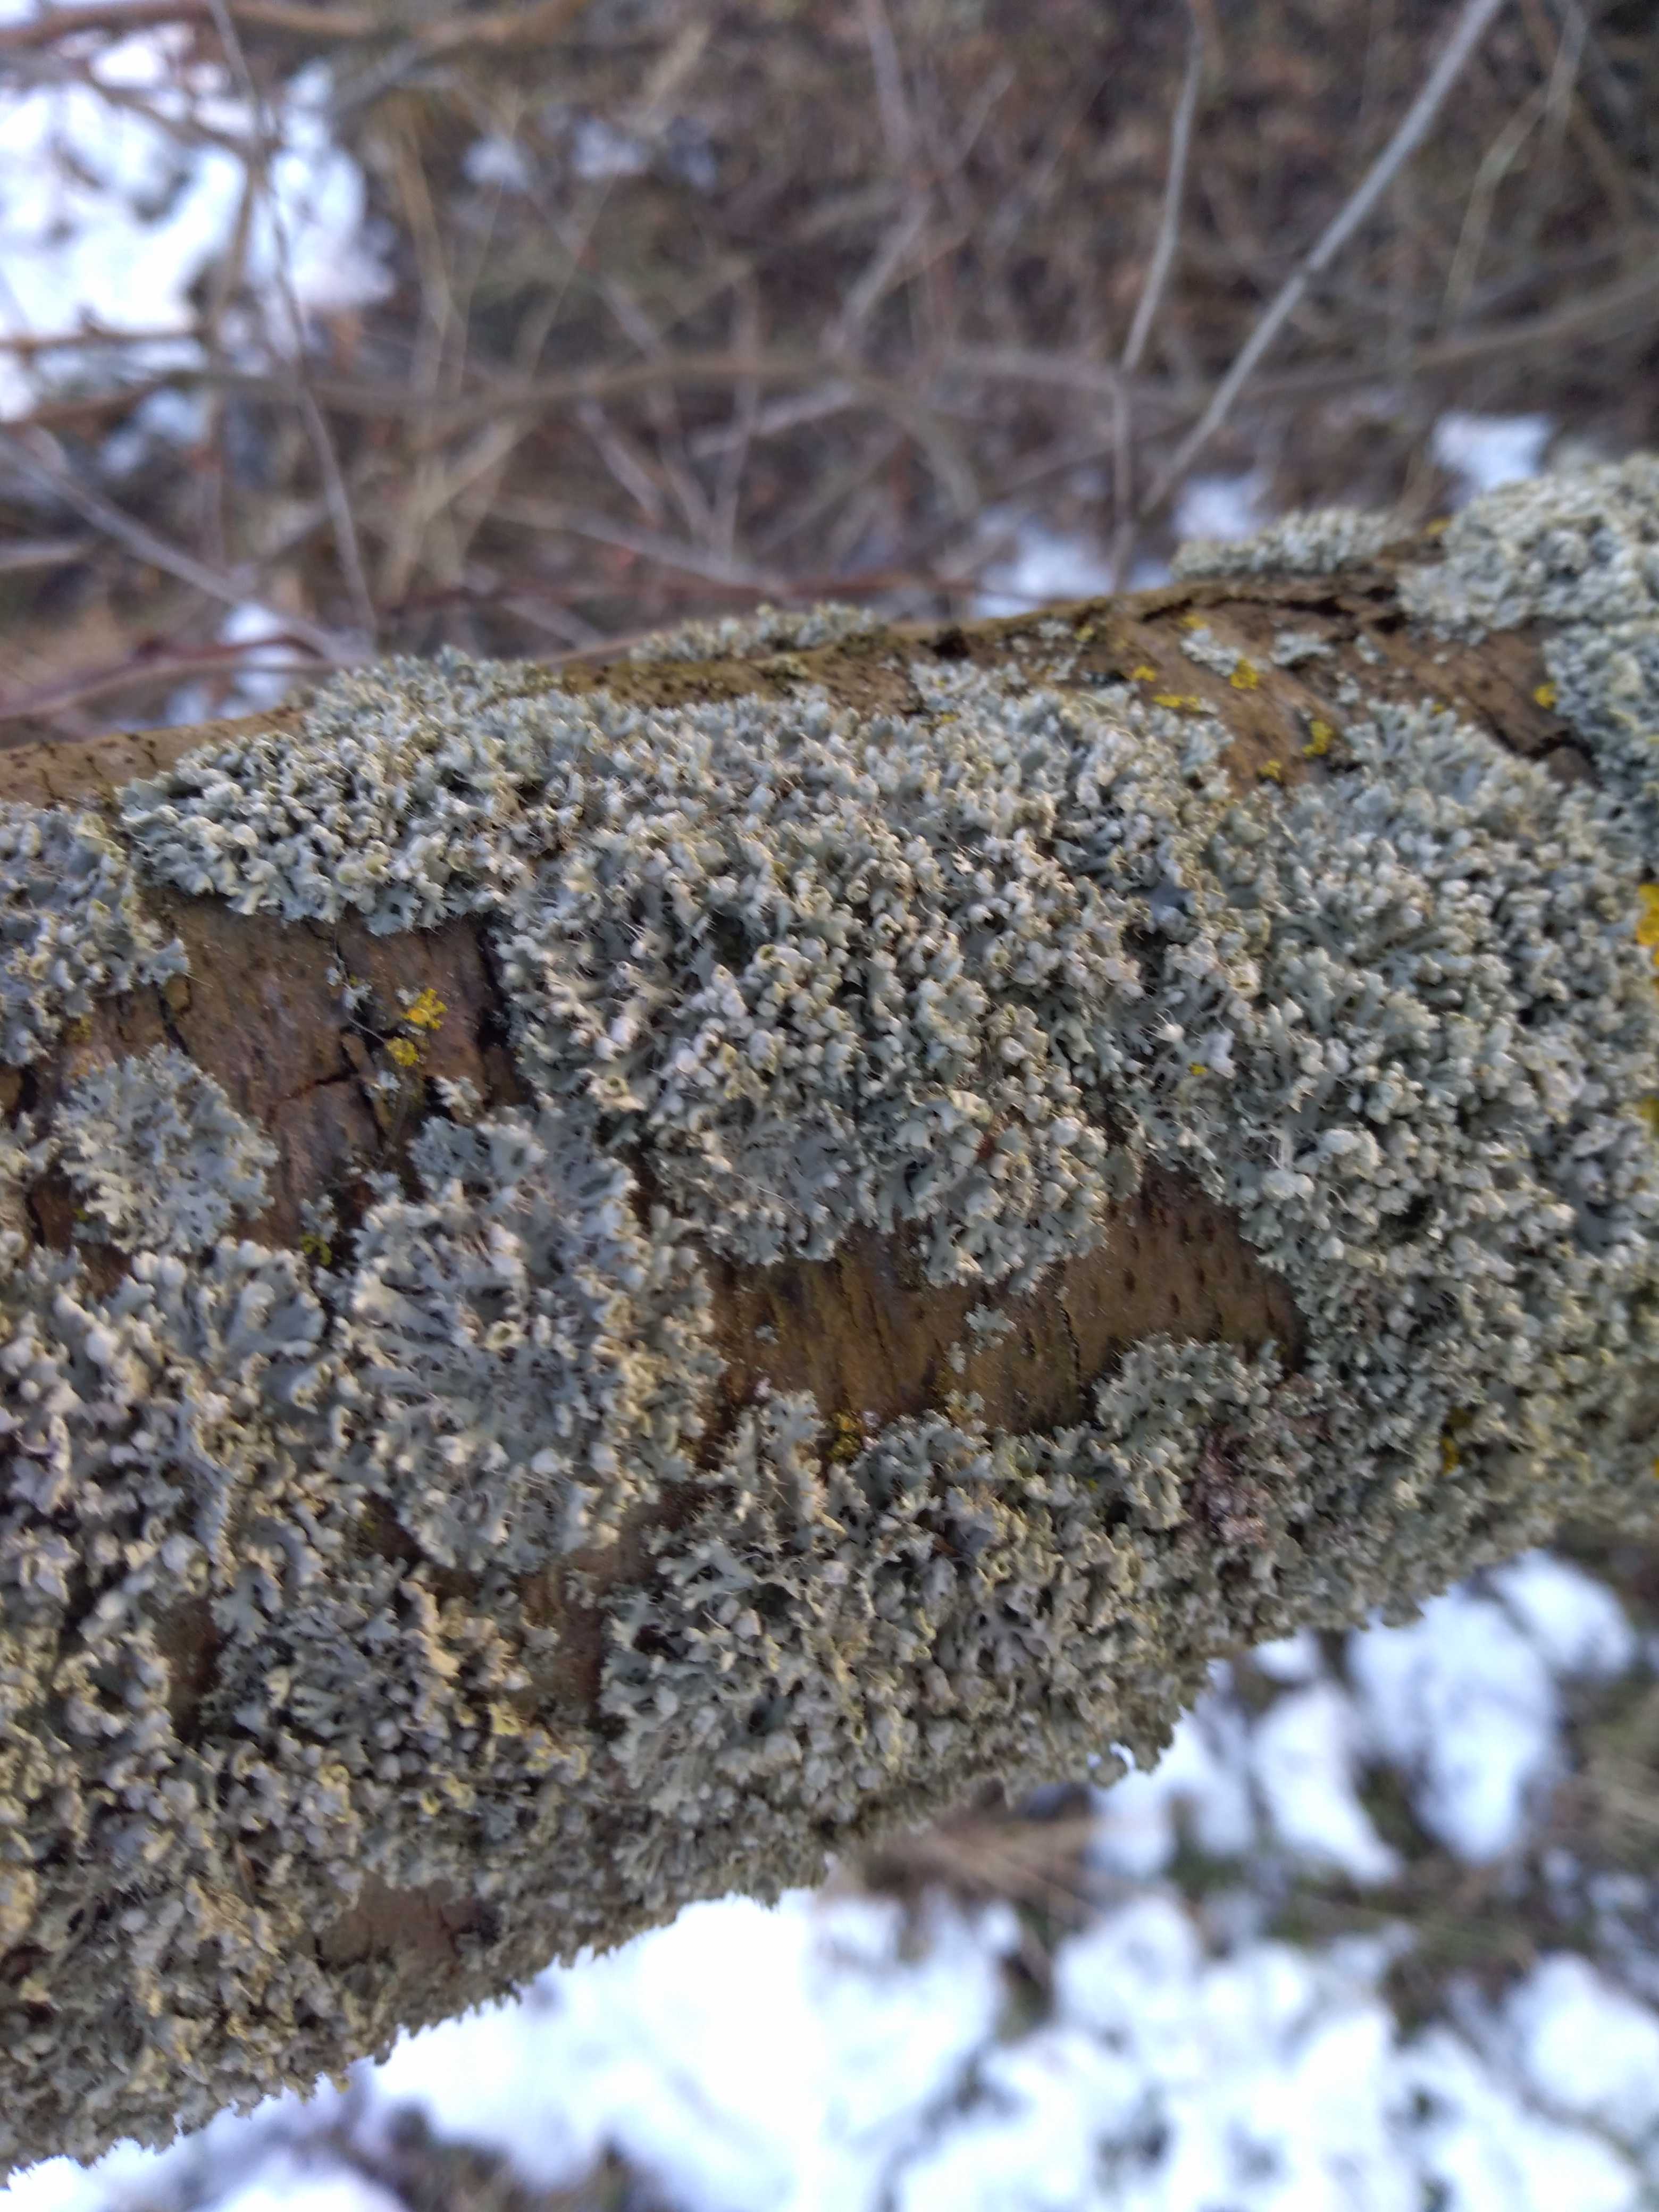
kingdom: Fungi
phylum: Ascomycota
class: Lecanoromycetes
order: Caliciales
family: Physciaceae
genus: Physcia
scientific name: Physcia adscendens
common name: hætte-rosetlav
